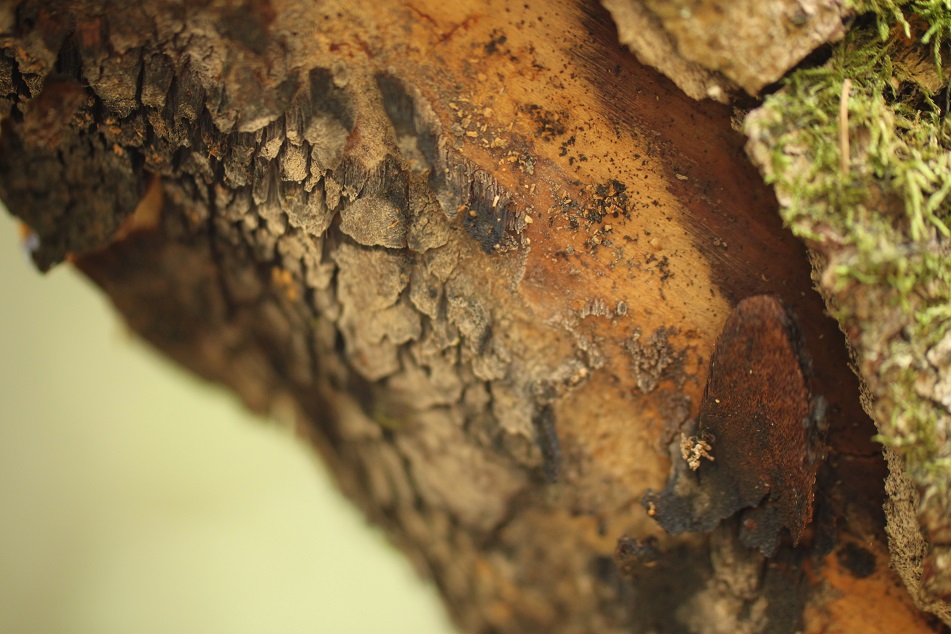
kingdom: Fungi
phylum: Basidiomycota
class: Agaricomycetes
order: Hymenochaetales
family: Hymenochaetaceae
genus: Inonotus
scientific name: Inonotus obliquus
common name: birke-spejlporesvamp
